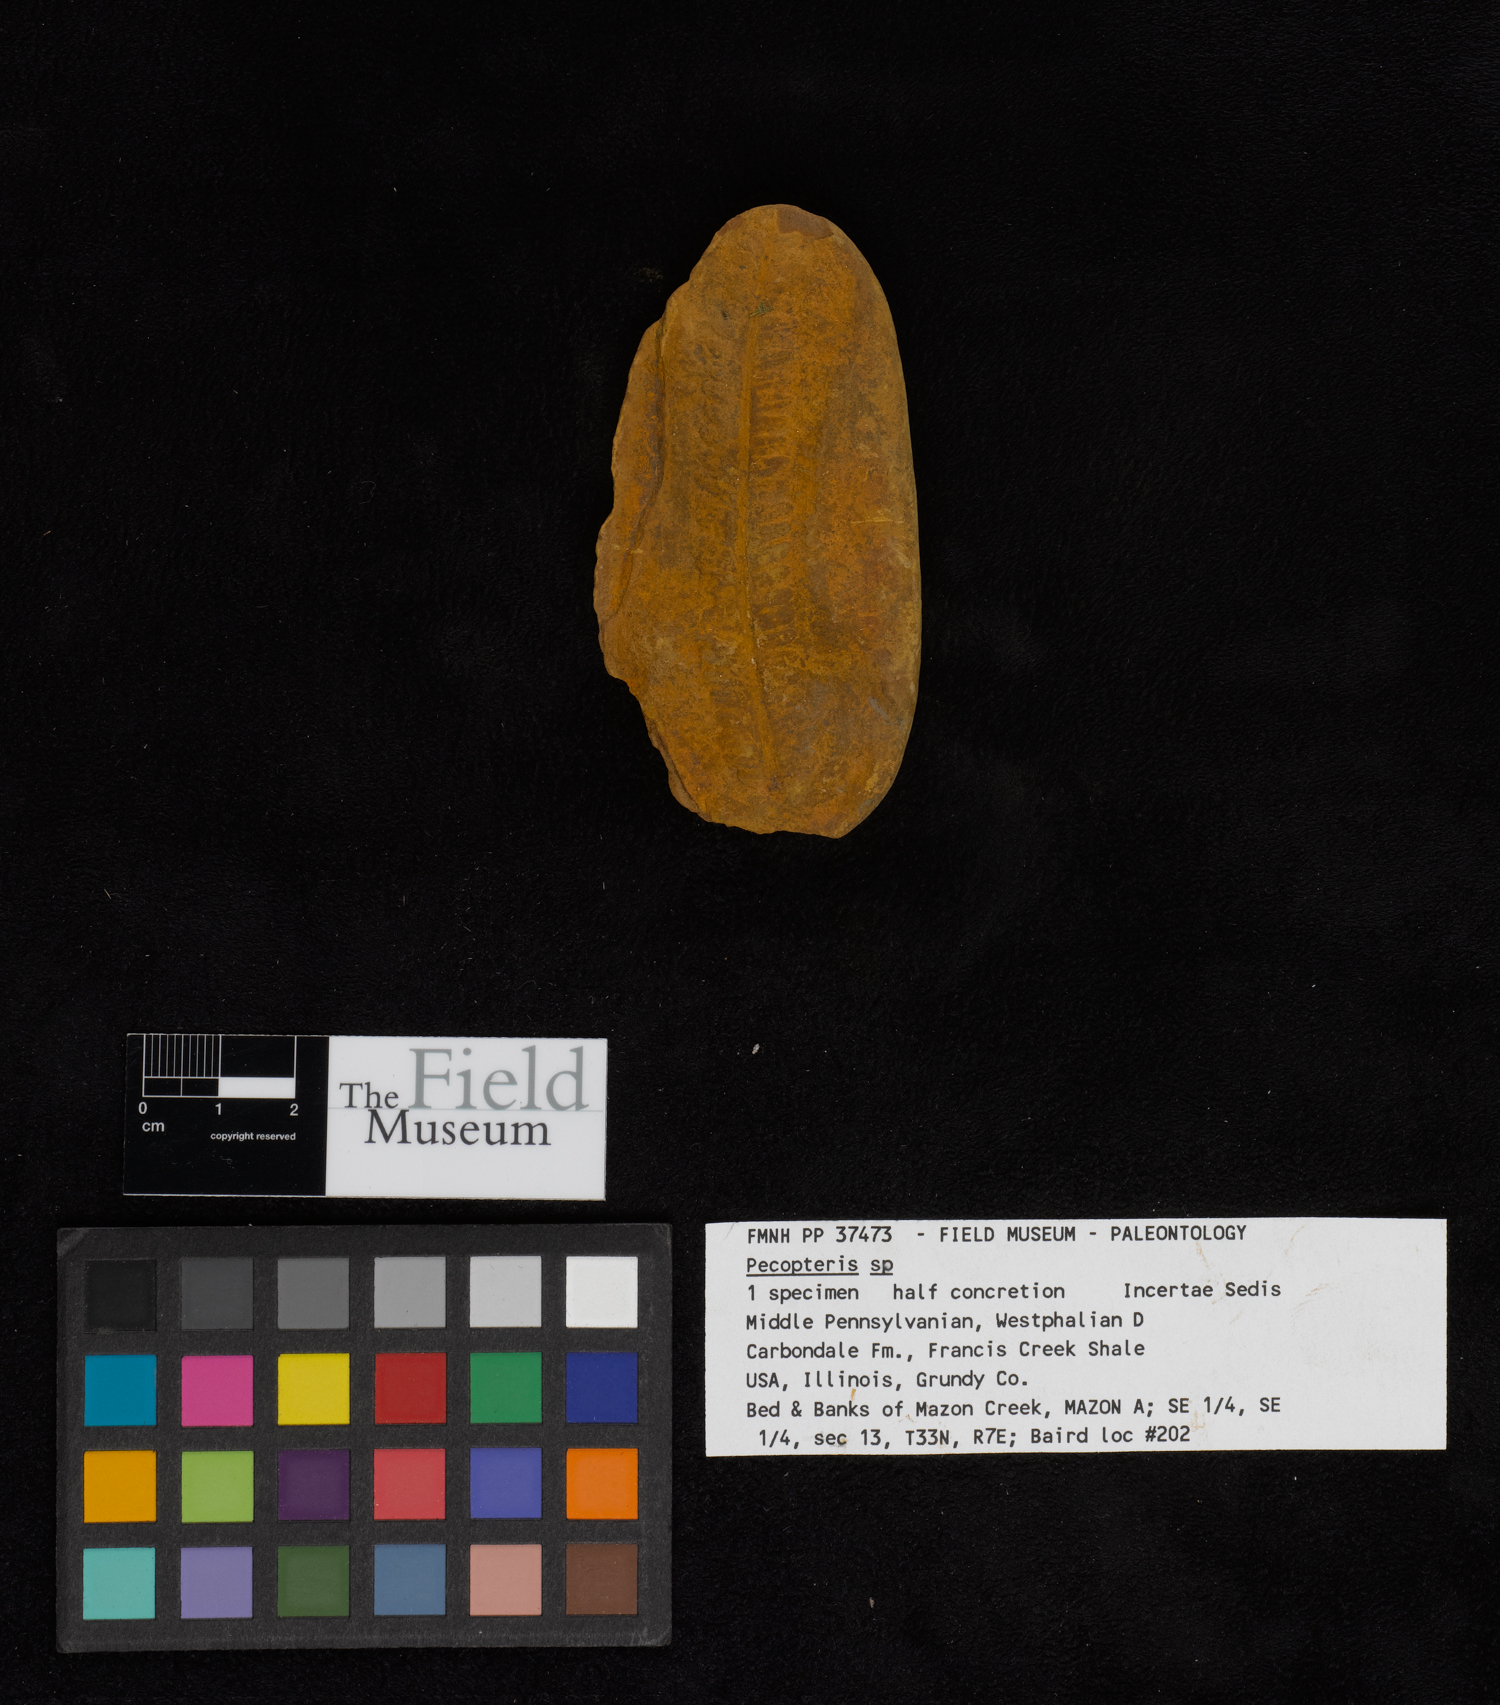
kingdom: Plantae
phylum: Tracheophyta
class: Polypodiopsida
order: Marattiales
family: Asterothecaceae
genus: Pecopteris
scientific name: Pecopteris
